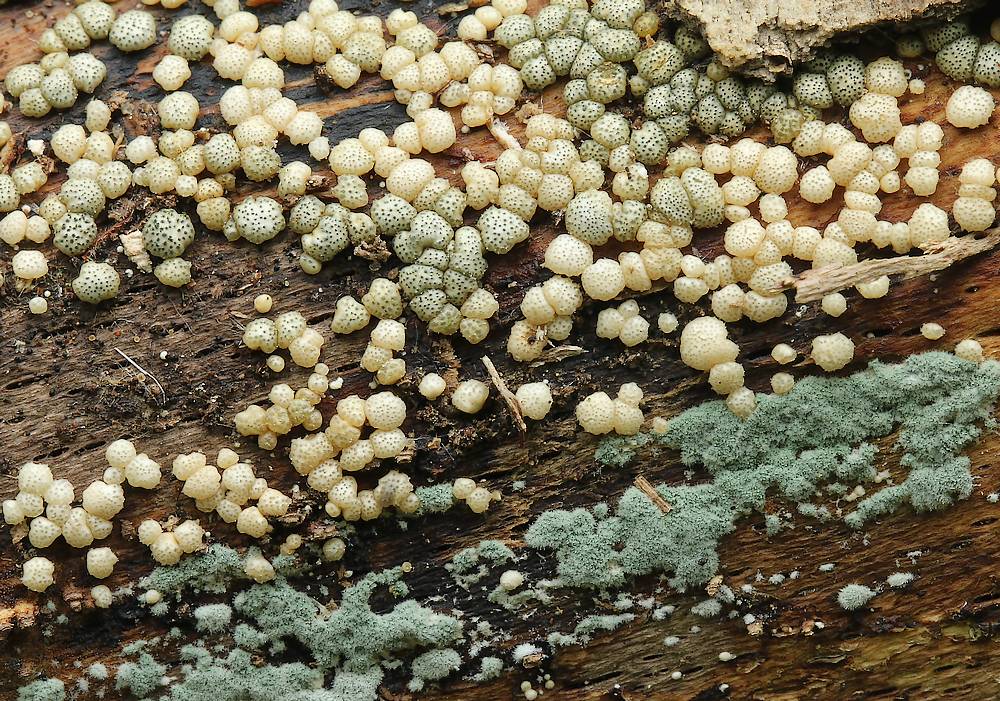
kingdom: Fungi
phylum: Ascomycota
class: Sordariomycetes
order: Hypocreales
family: Hypocreaceae
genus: Trichoderma
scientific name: Trichoderma strictipile
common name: grønprikket kødkerne
